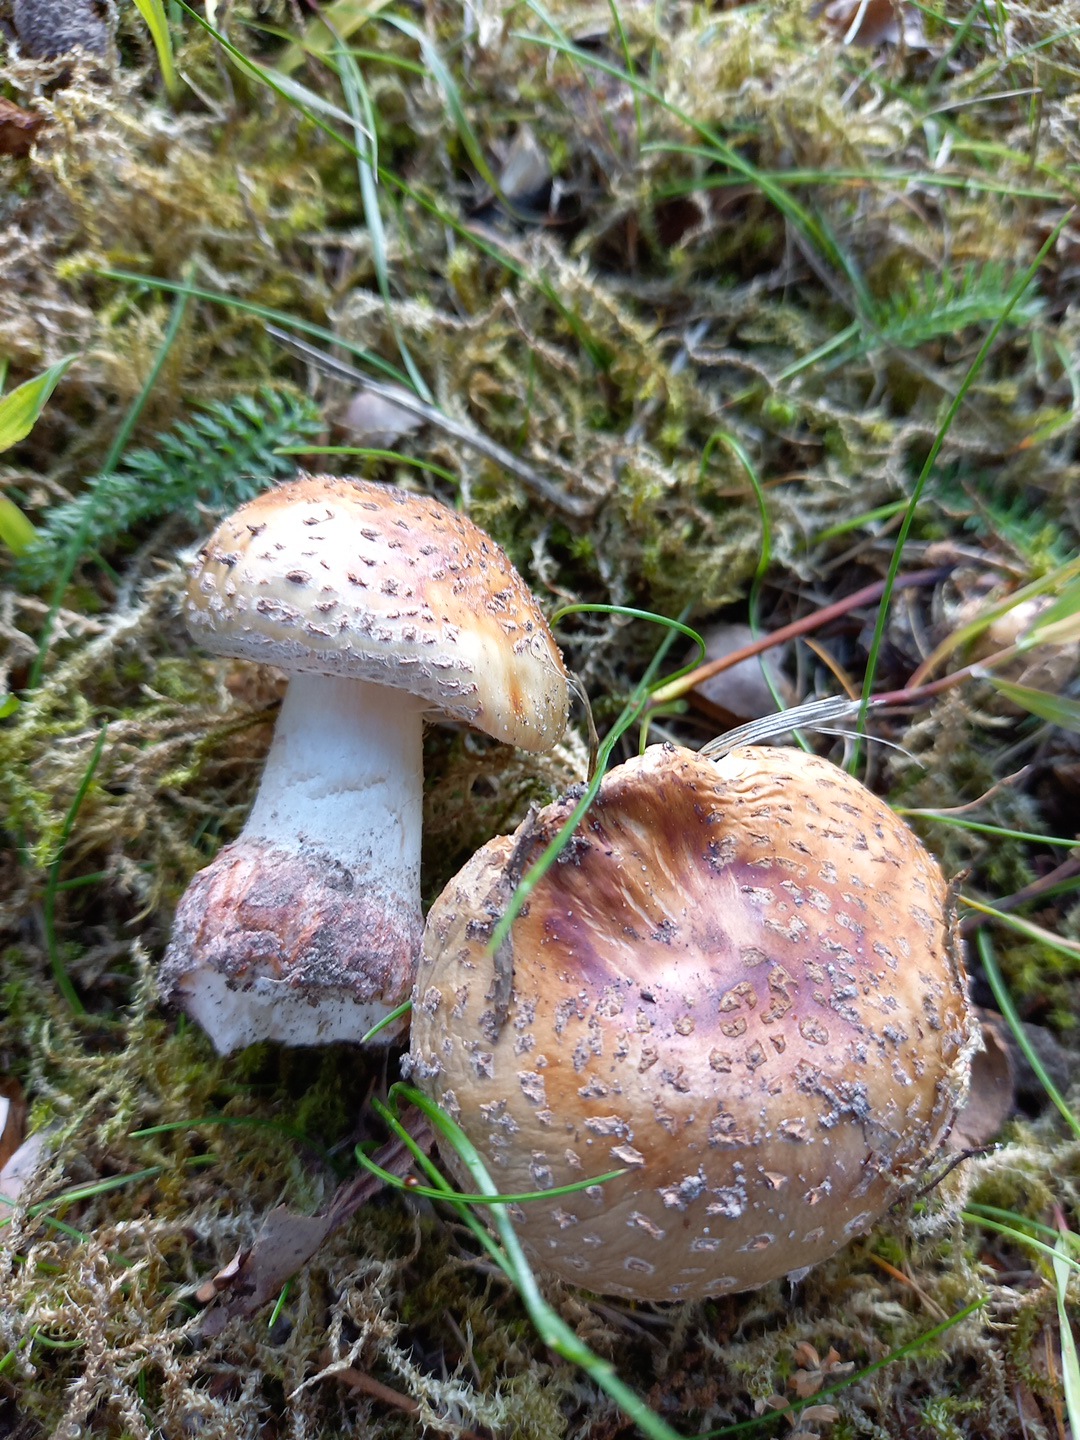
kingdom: Fungi
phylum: Basidiomycota
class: Agaricomycetes
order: Agaricales
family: Amanitaceae
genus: Amanita
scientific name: Amanita rubescens
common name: rødmende fluesvamp
